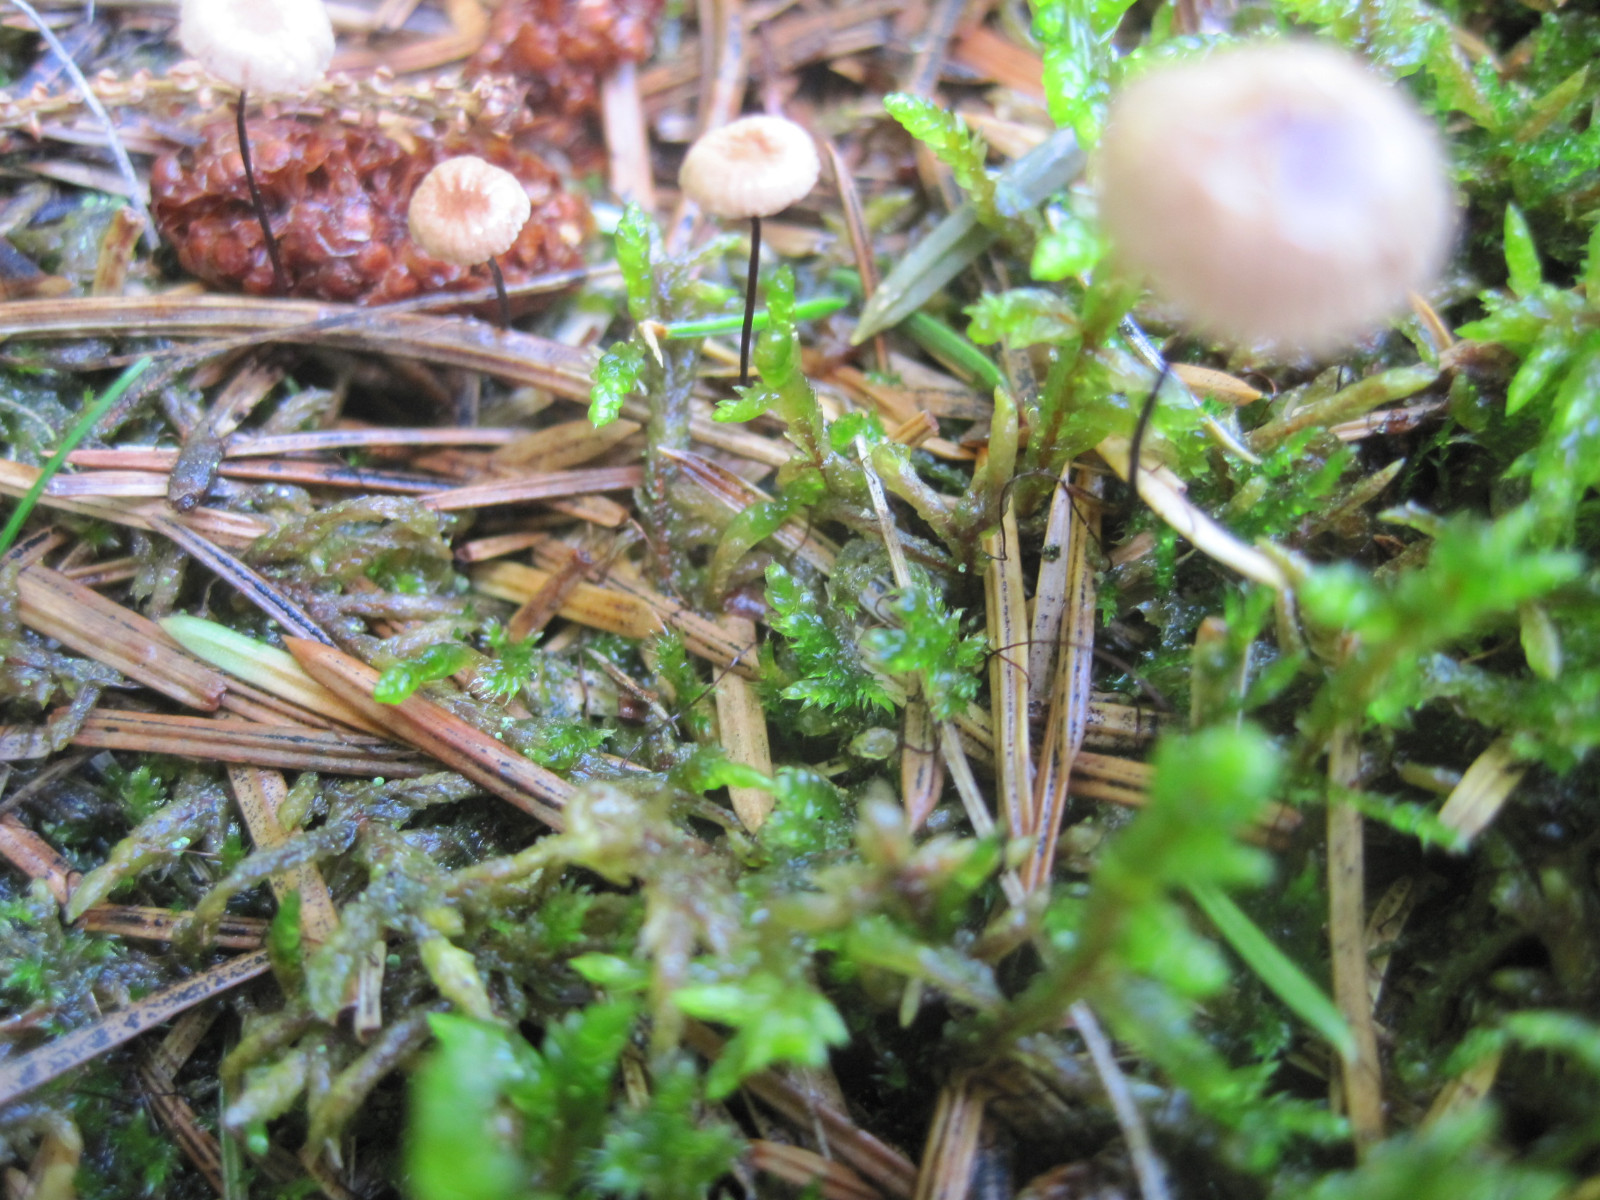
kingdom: Fungi
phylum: Basidiomycota
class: Agaricomycetes
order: Agaricales
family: Omphalotaceae
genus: Gymnopus
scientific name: Gymnopus androsaceus
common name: trådstokket fladhat
